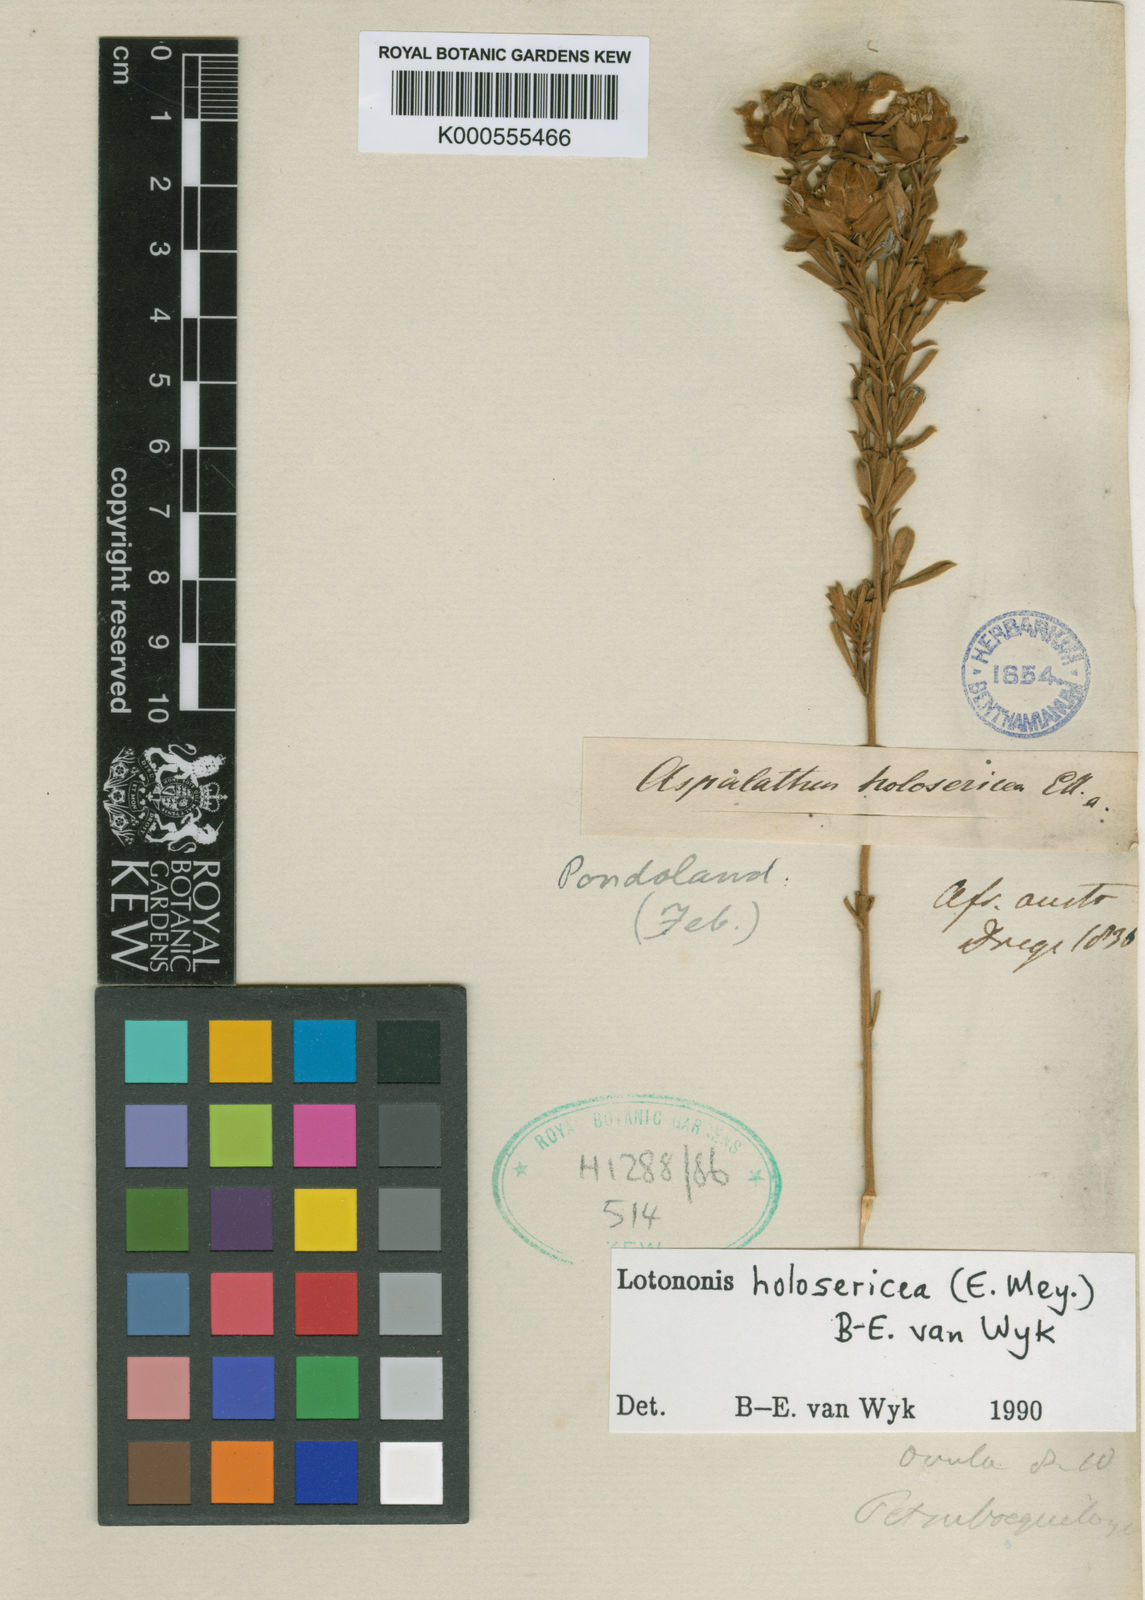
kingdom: Plantae
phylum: Tracheophyta
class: Magnoliopsida
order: Fabales
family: Fabaceae
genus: Lotononis
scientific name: Lotononis holosericea
